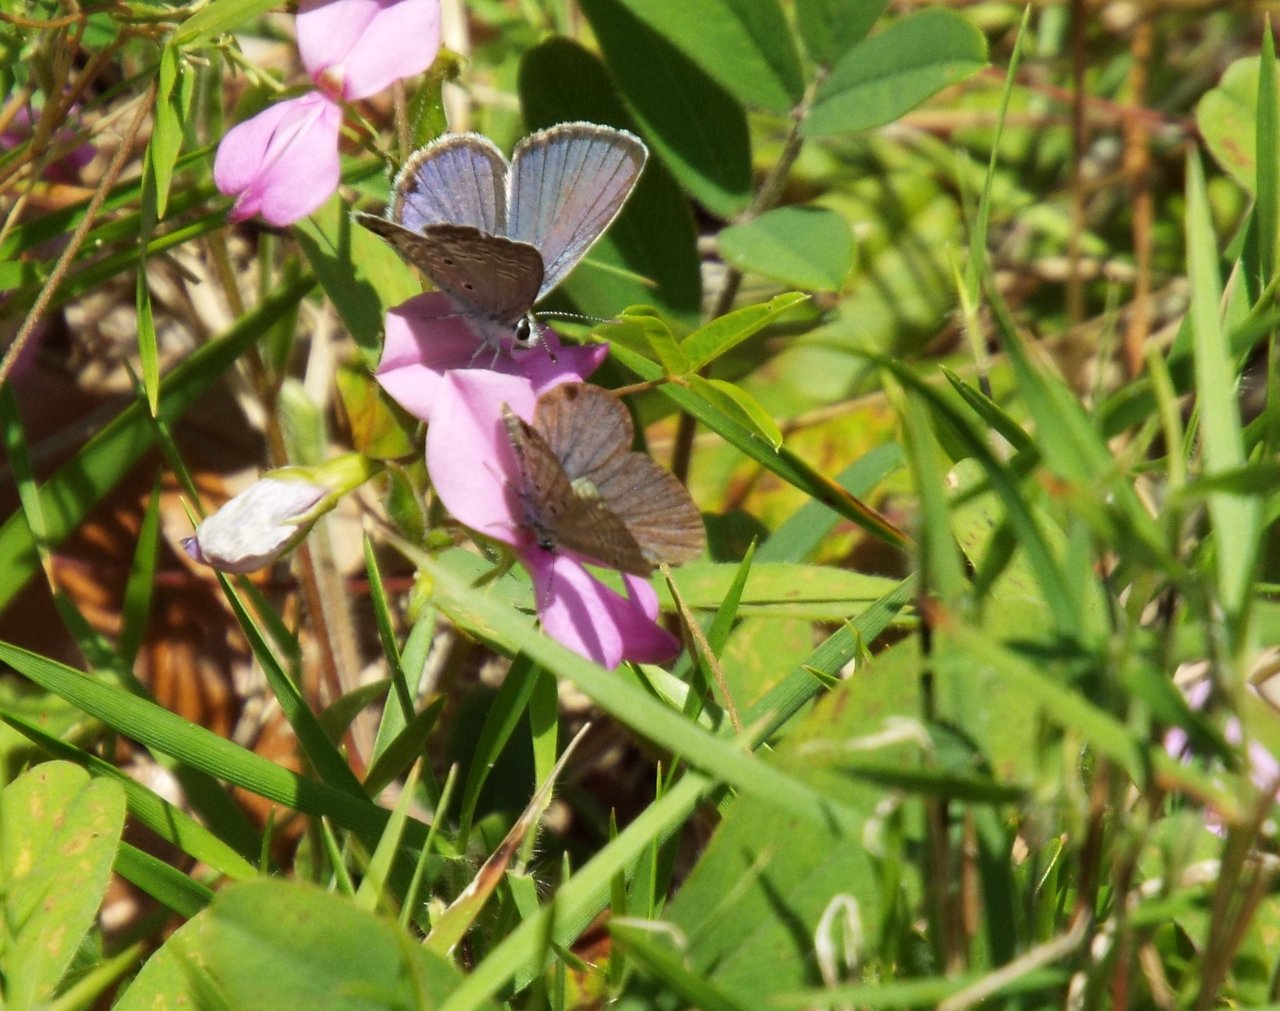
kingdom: Animalia
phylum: Arthropoda
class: Insecta
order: Lepidoptera
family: Lycaenidae
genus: Hemiargus
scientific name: Hemiargus ceraunus
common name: Ceraunus Blue
